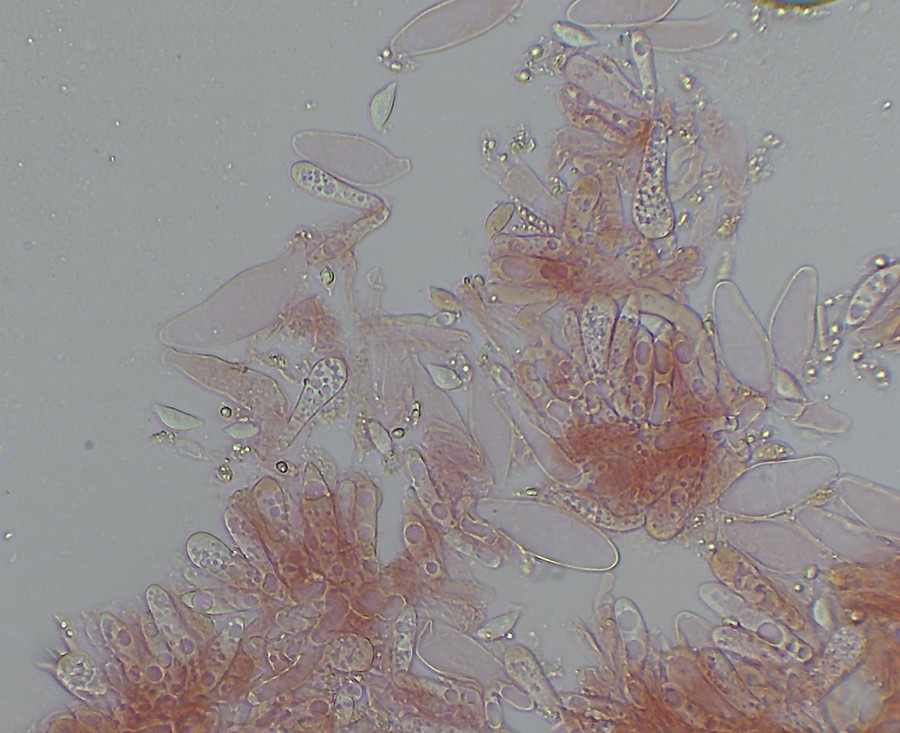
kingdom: Fungi
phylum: Basidiomycota
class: Agaricomycetes
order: Agaricales
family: Physalacriaceae
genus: Rhizomarasmius
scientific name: Rhizomarasmius setosus
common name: bøgeblads-bruskhat
